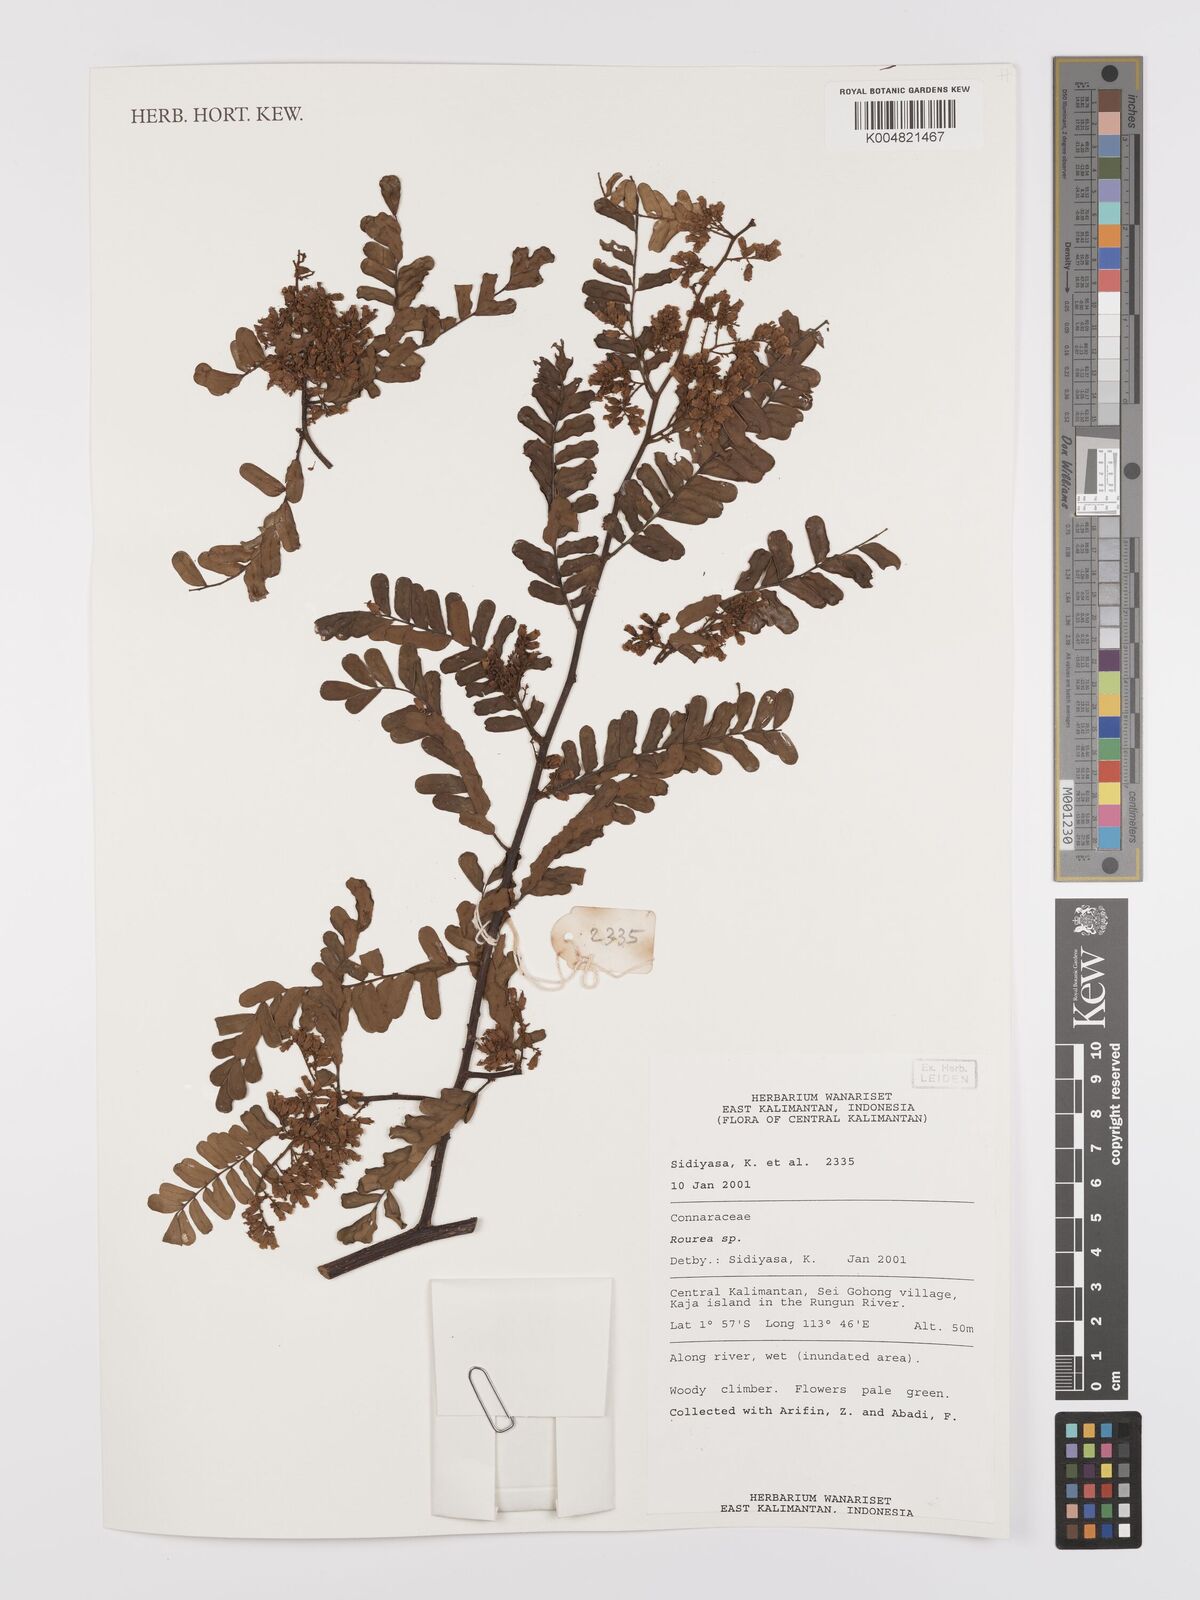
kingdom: Plantae
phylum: Tracheophyta
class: Magnoliopsida
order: Oxalidales
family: Connaraceae
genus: Rourea
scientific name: Rourea
